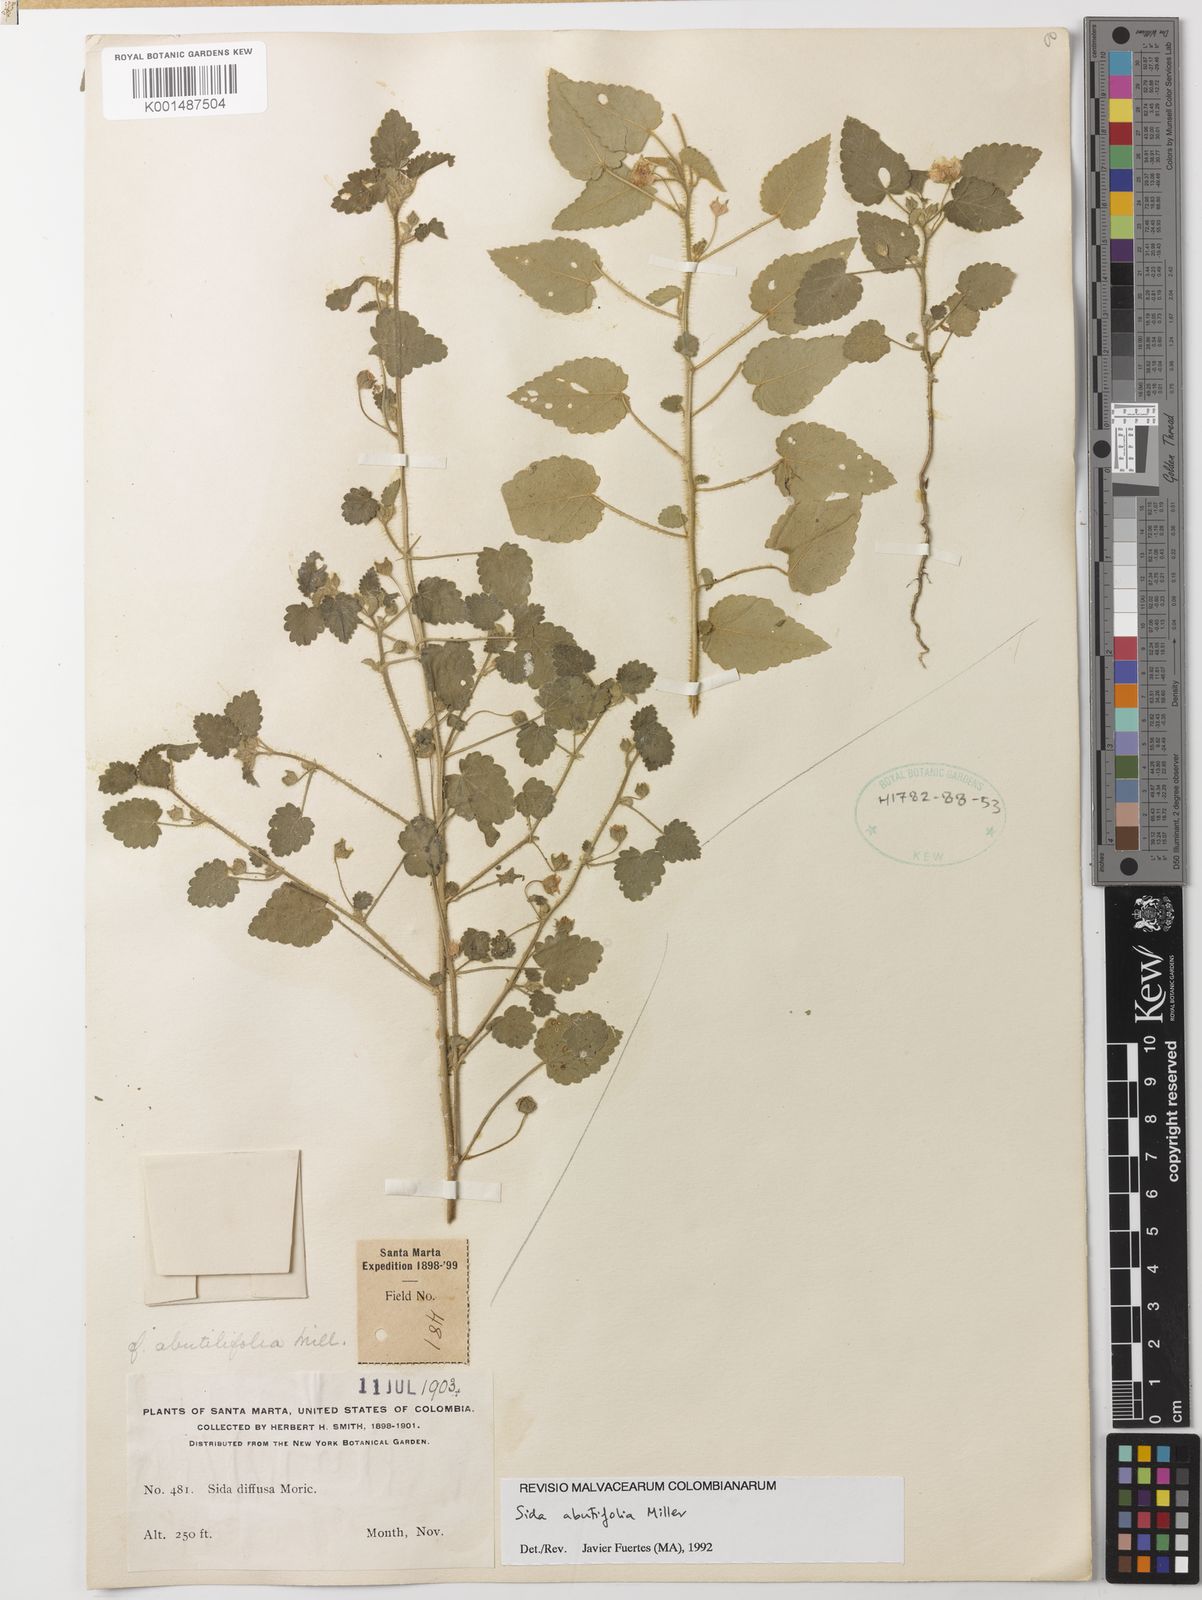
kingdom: Plantae
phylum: Tracheophyta
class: Magnoliopsida
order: Malvales
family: Malvaceae
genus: Sida
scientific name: Sida abutifolia
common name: Spreading fantails
